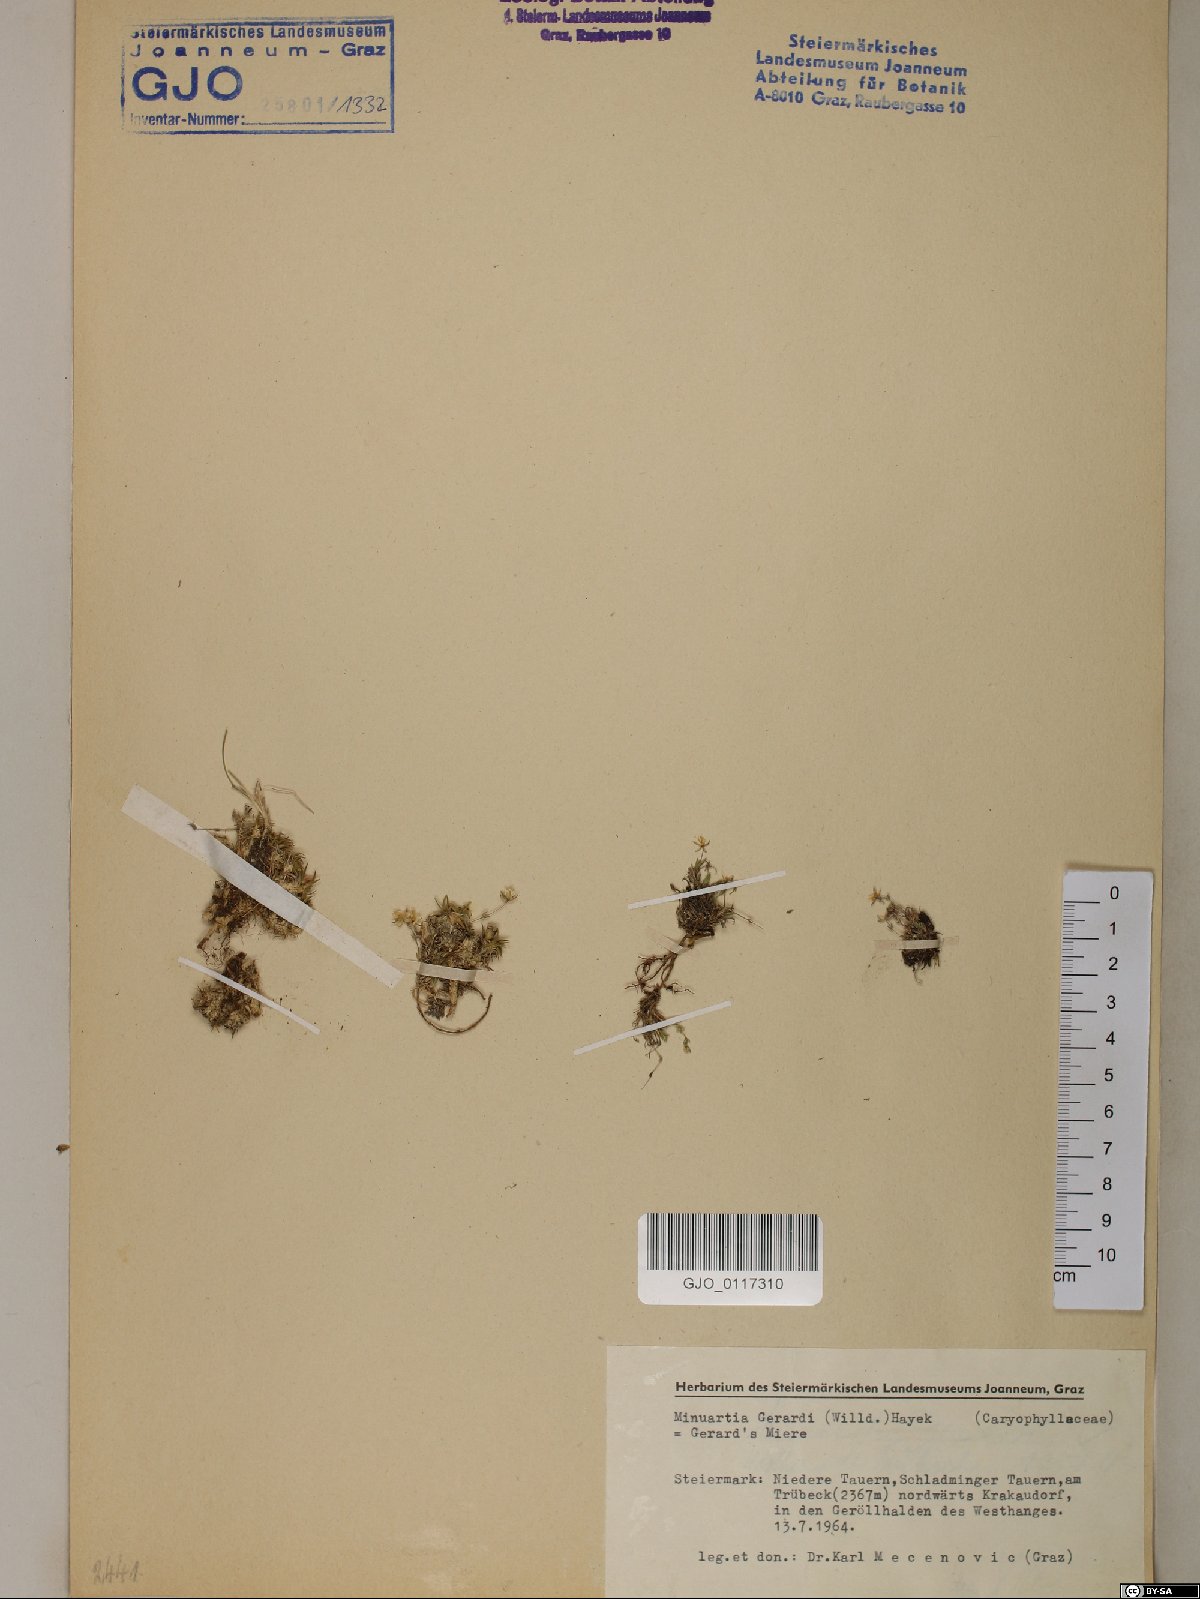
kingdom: Plantae
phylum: Tracheophyta
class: Magnoliopsida
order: Caryophyllales
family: Caryophyllaceae
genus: Sabulina
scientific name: Sabulina verna
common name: Spring sandwort
